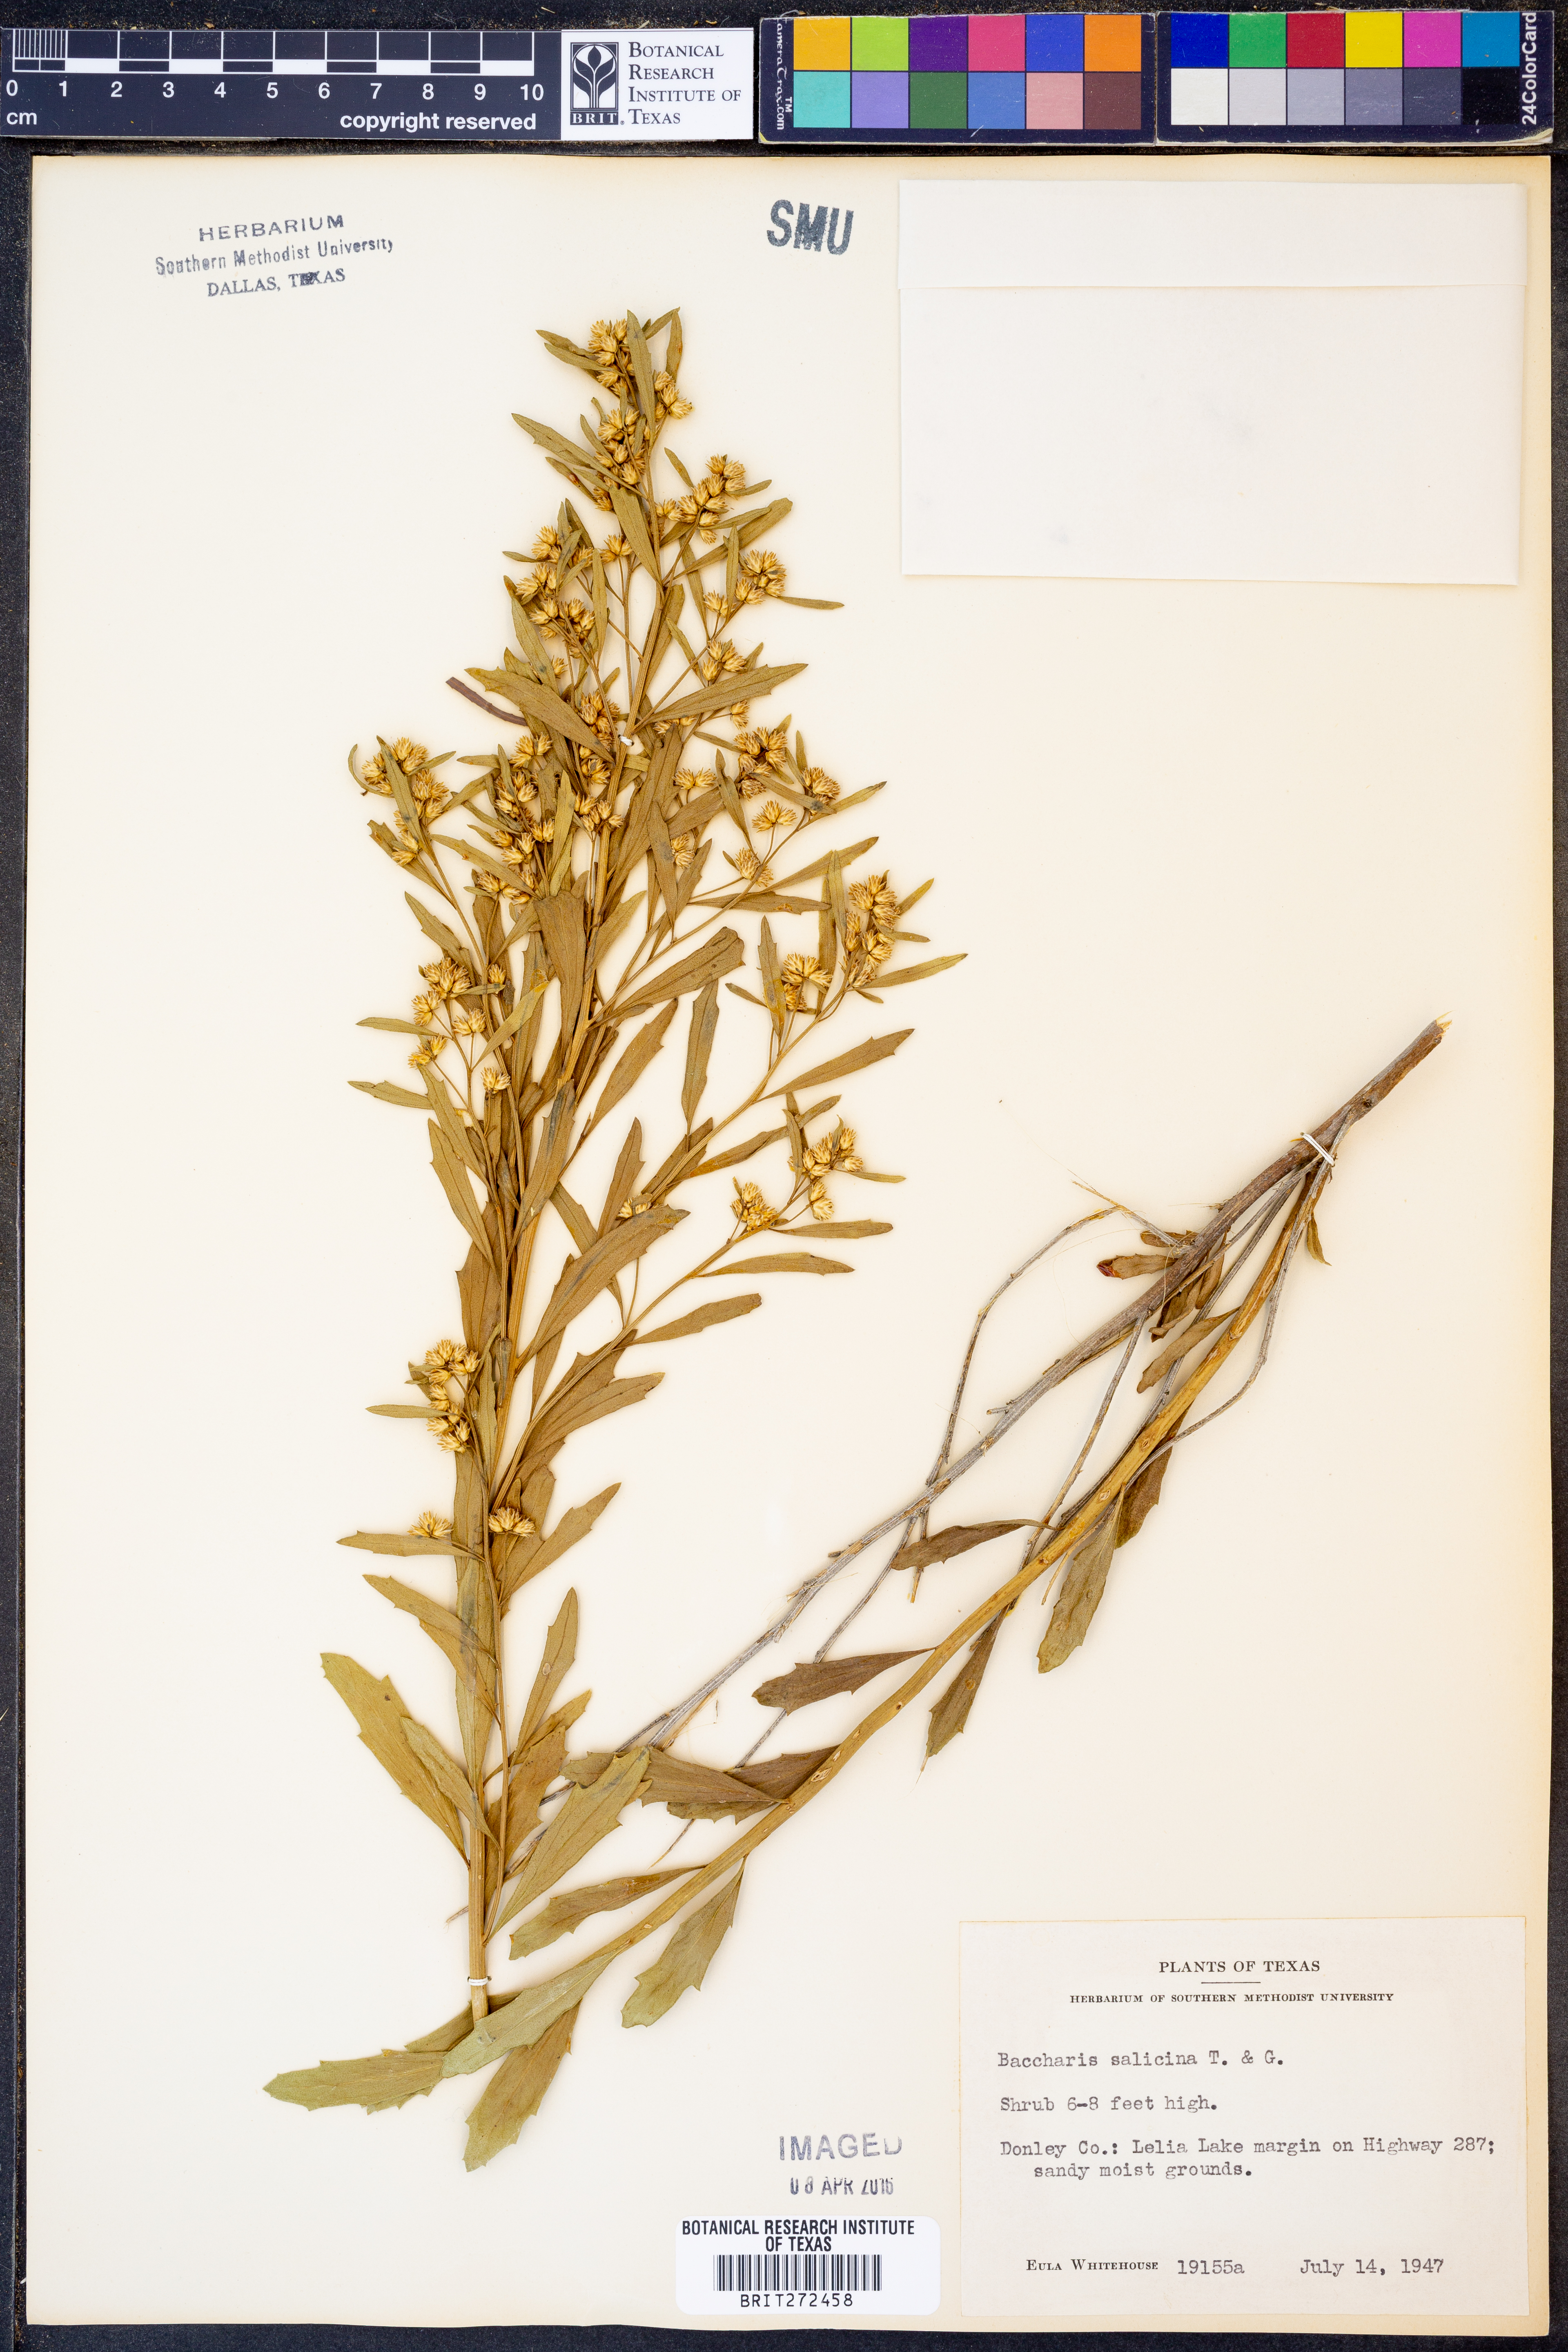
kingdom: Plantae
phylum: Tracheophyta
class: Magnoliopsida
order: Asterales
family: Asteraceae
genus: Baccharis
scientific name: Baccharis salicina
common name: Willow baccharis
